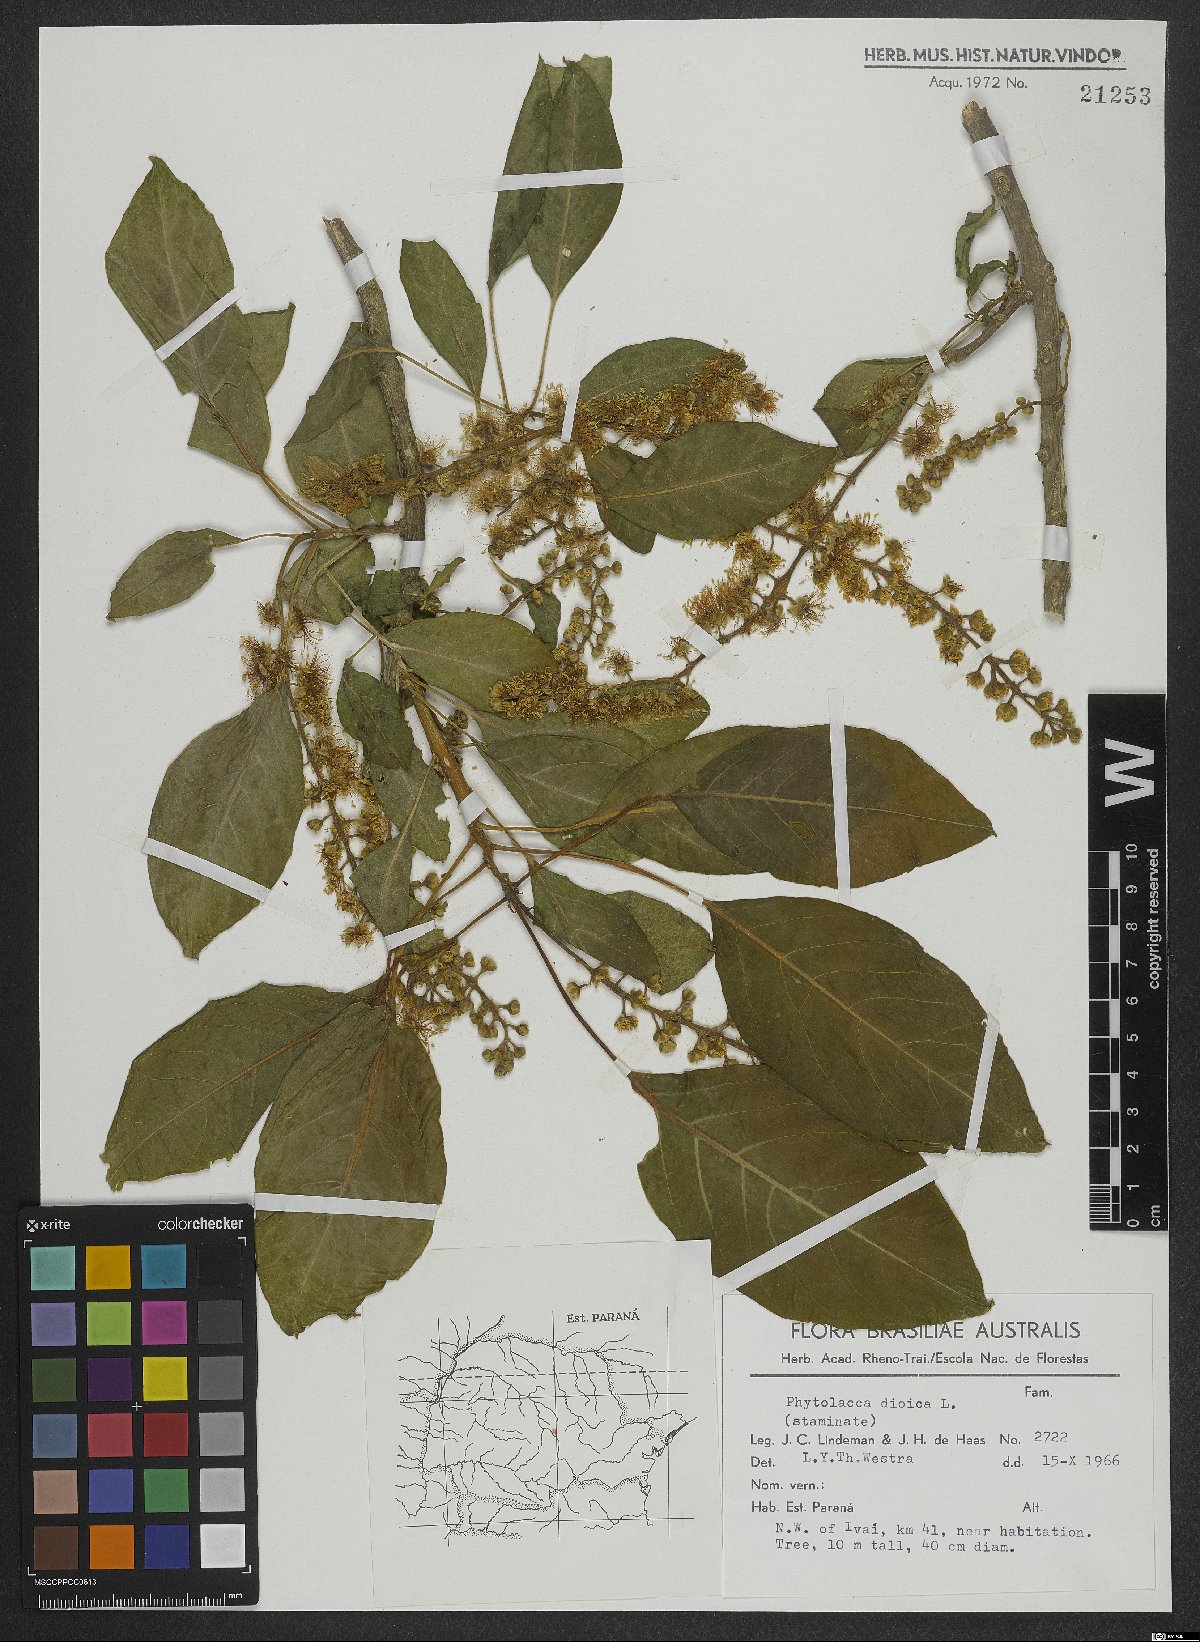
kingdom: Plantae
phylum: Tracheophyta
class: Magnoliopsida
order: Caryophyllales
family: Phytolaccaceae
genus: Phytolacca
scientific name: Phytolacca dioica
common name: Pokeweed
